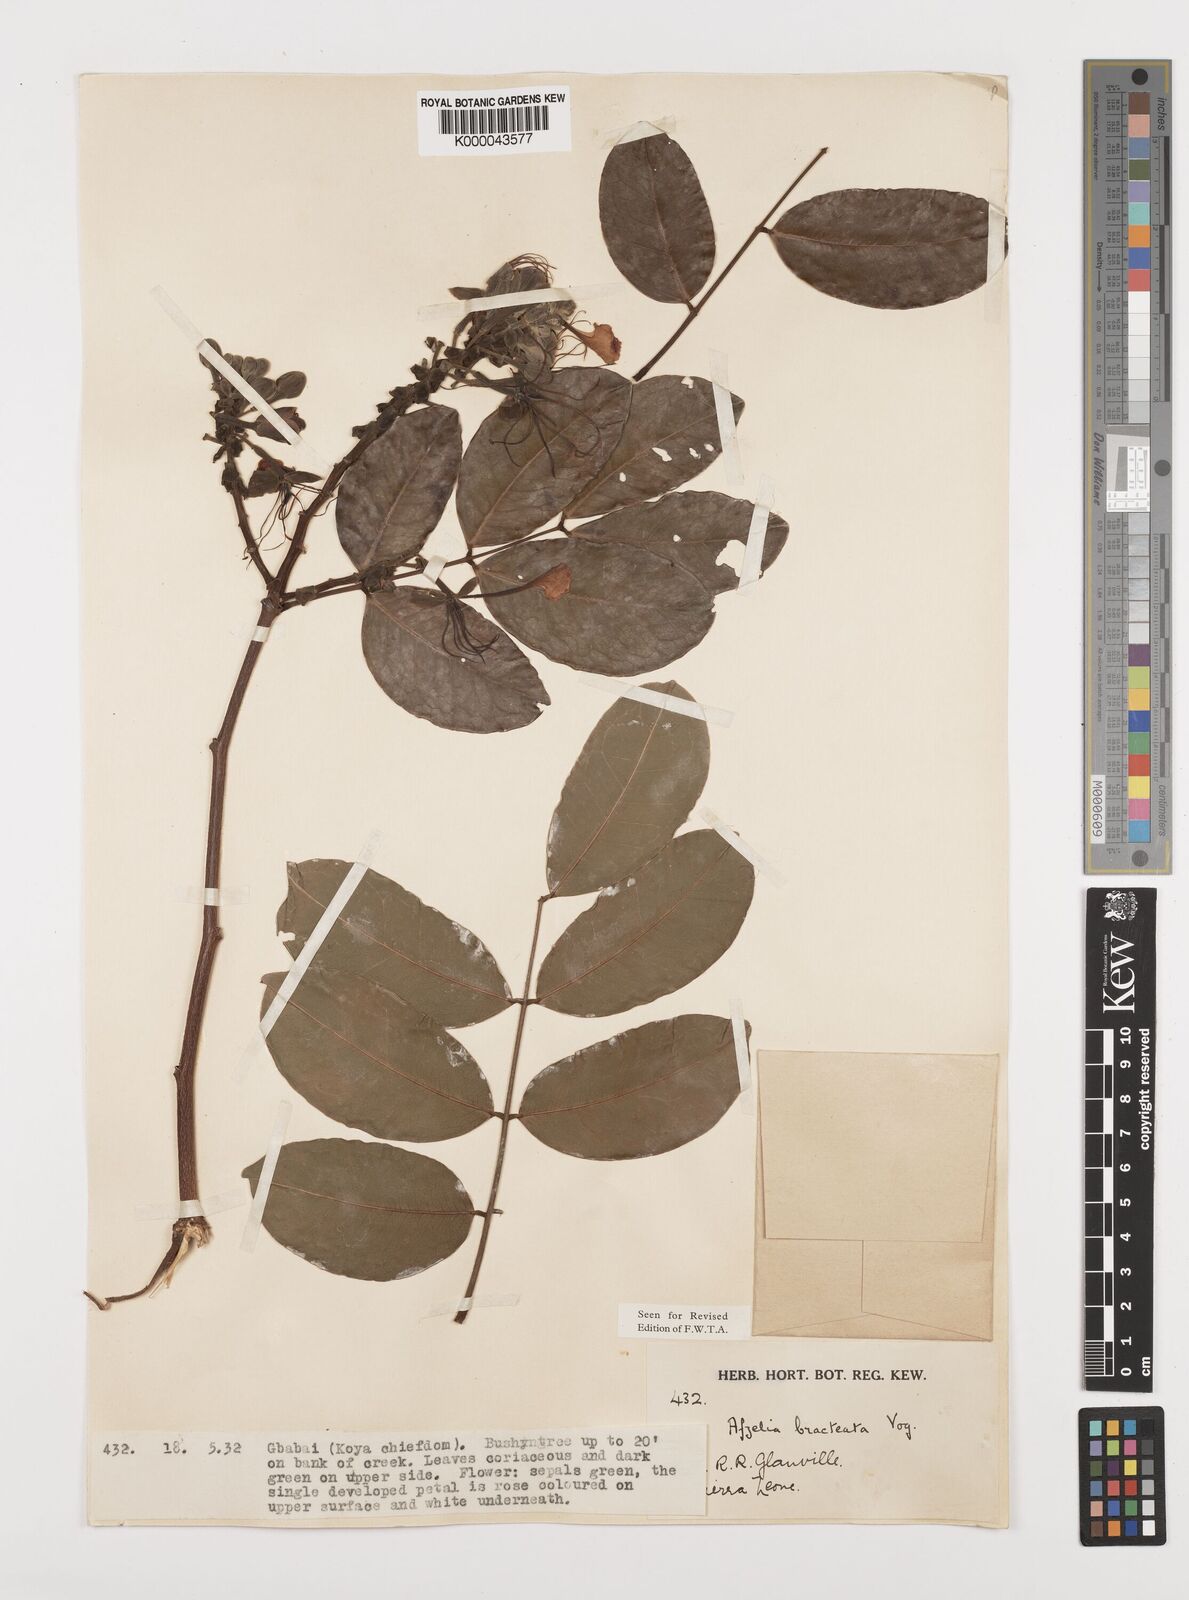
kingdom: Plantae
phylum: Tracheophyta
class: Magnoliopsida
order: Fabales
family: Fabaceae
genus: Afzelia
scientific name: Afzelia
